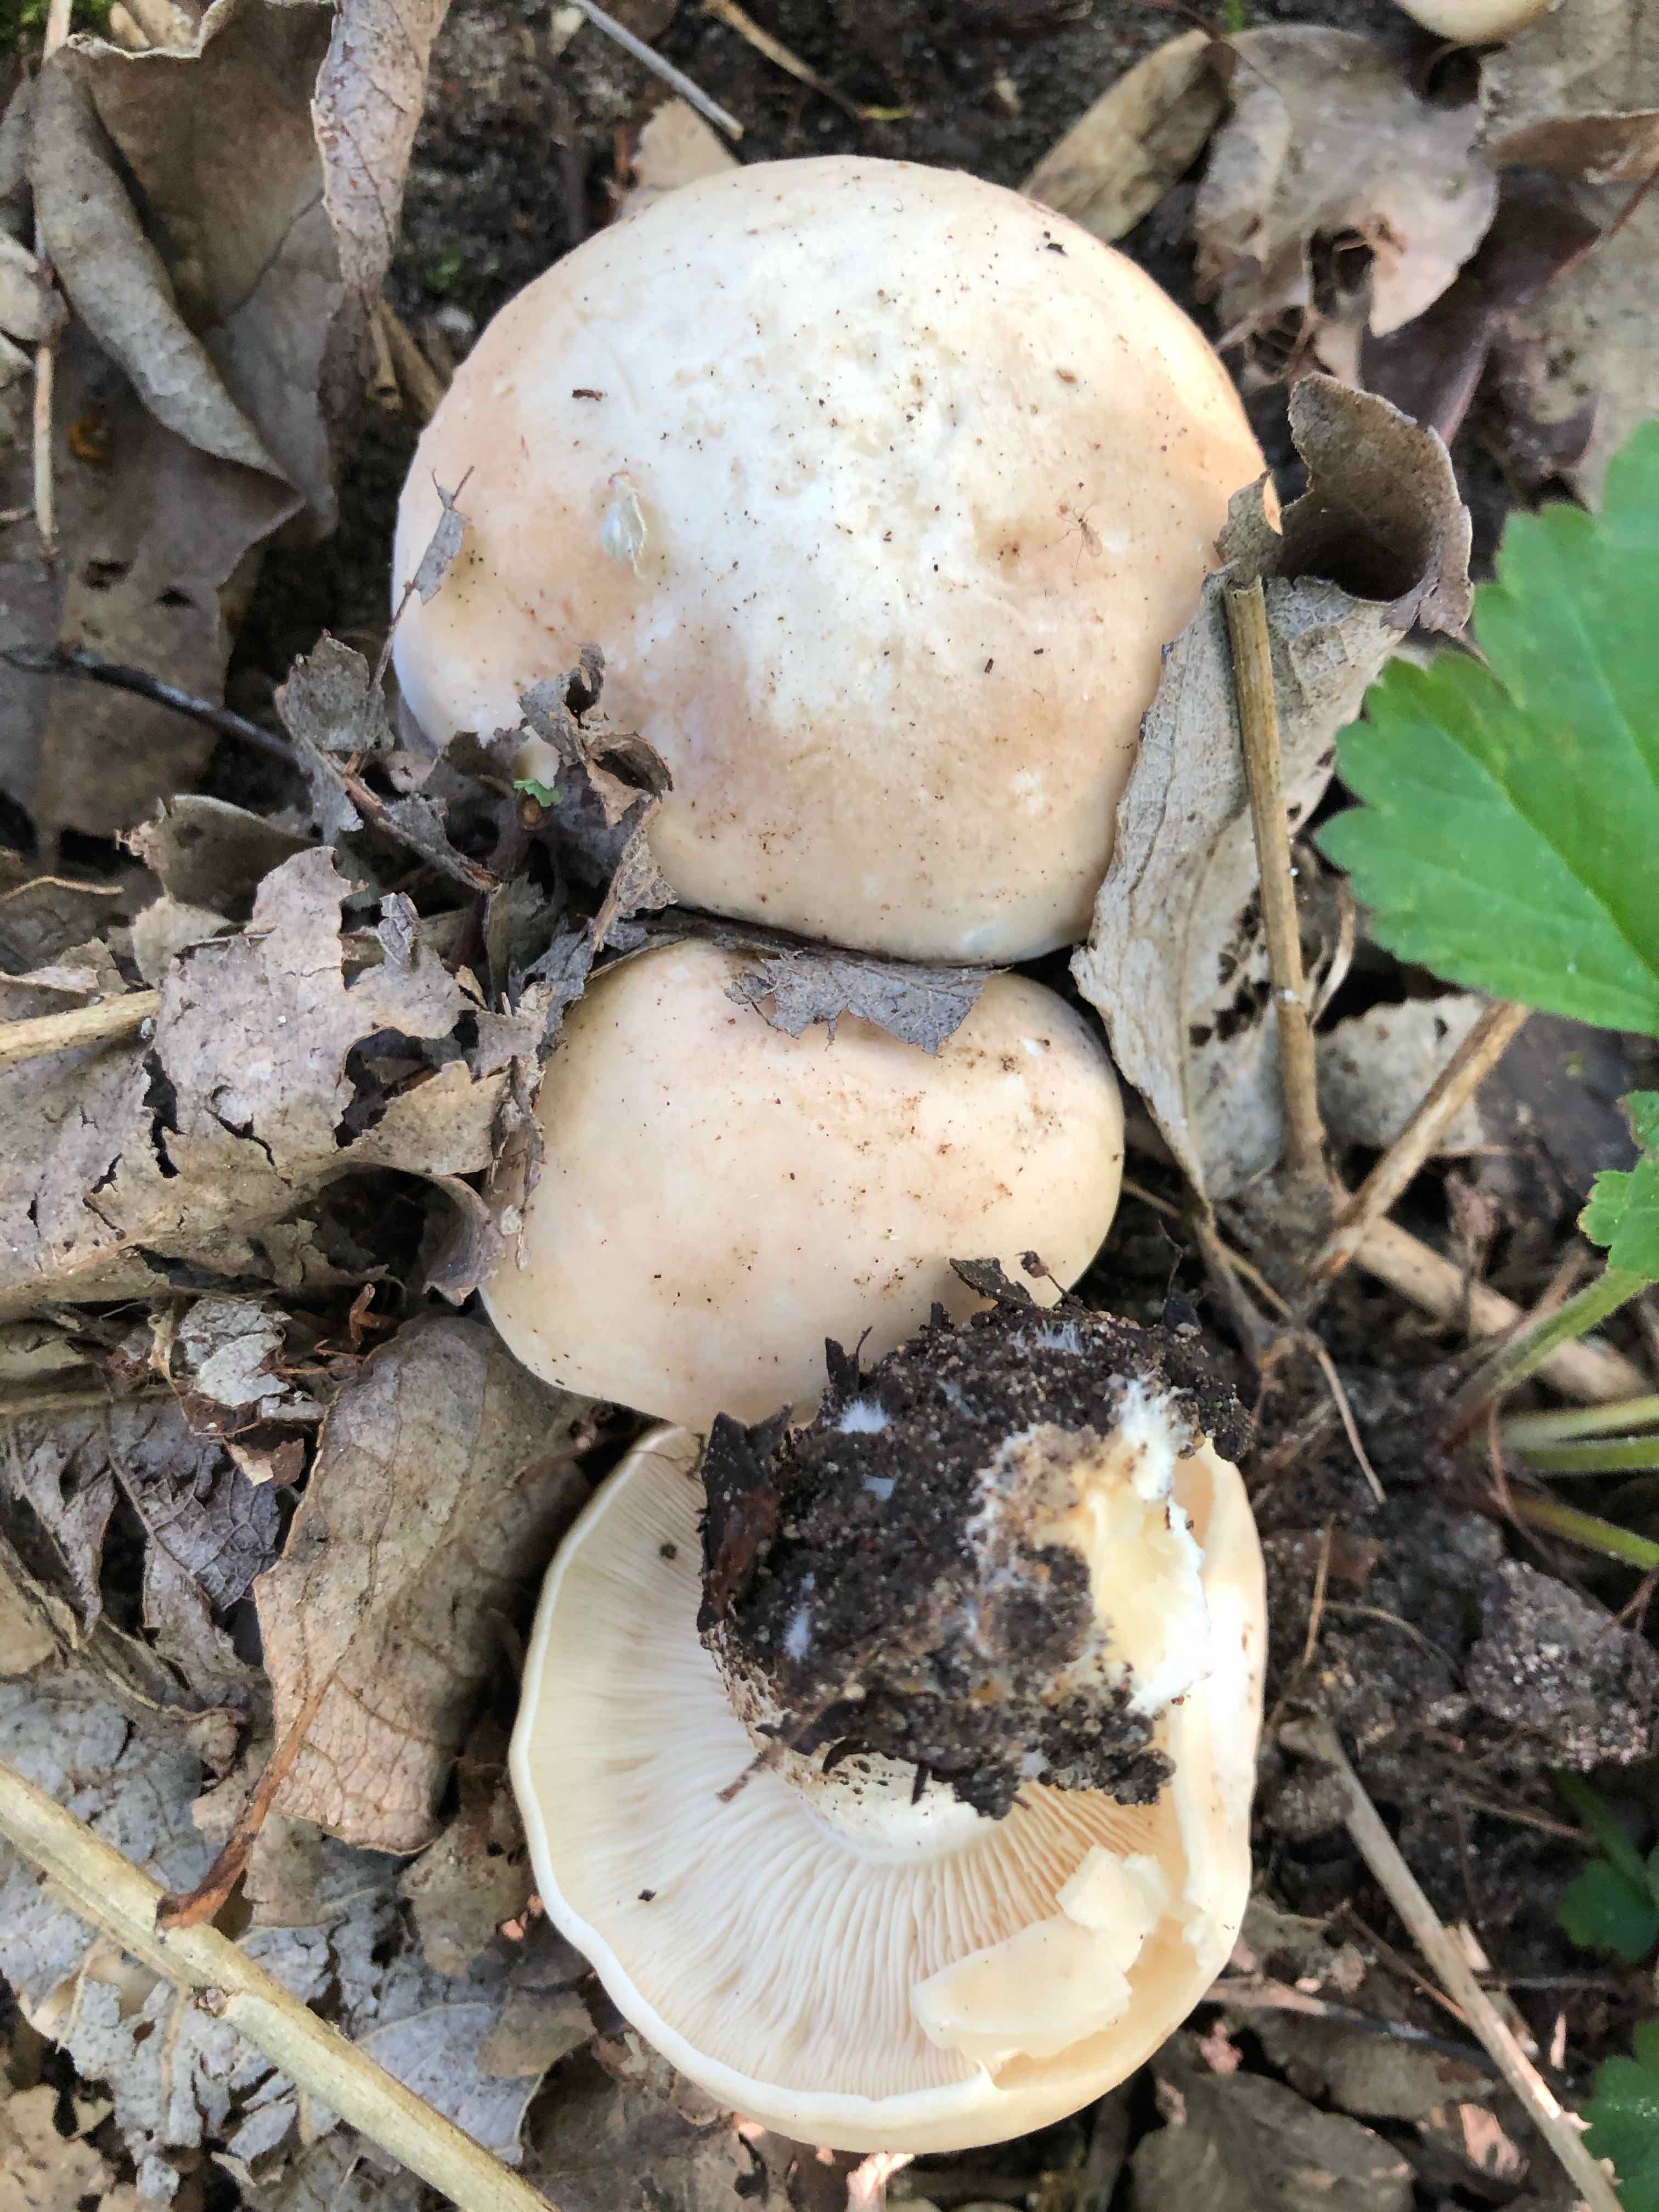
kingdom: Fungi
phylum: Basidiomycota
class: Agaricomycetes
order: Agaricales
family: Lyophyllaceae
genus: Calocybe
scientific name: Calocybe gambosa
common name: vårmusseron
